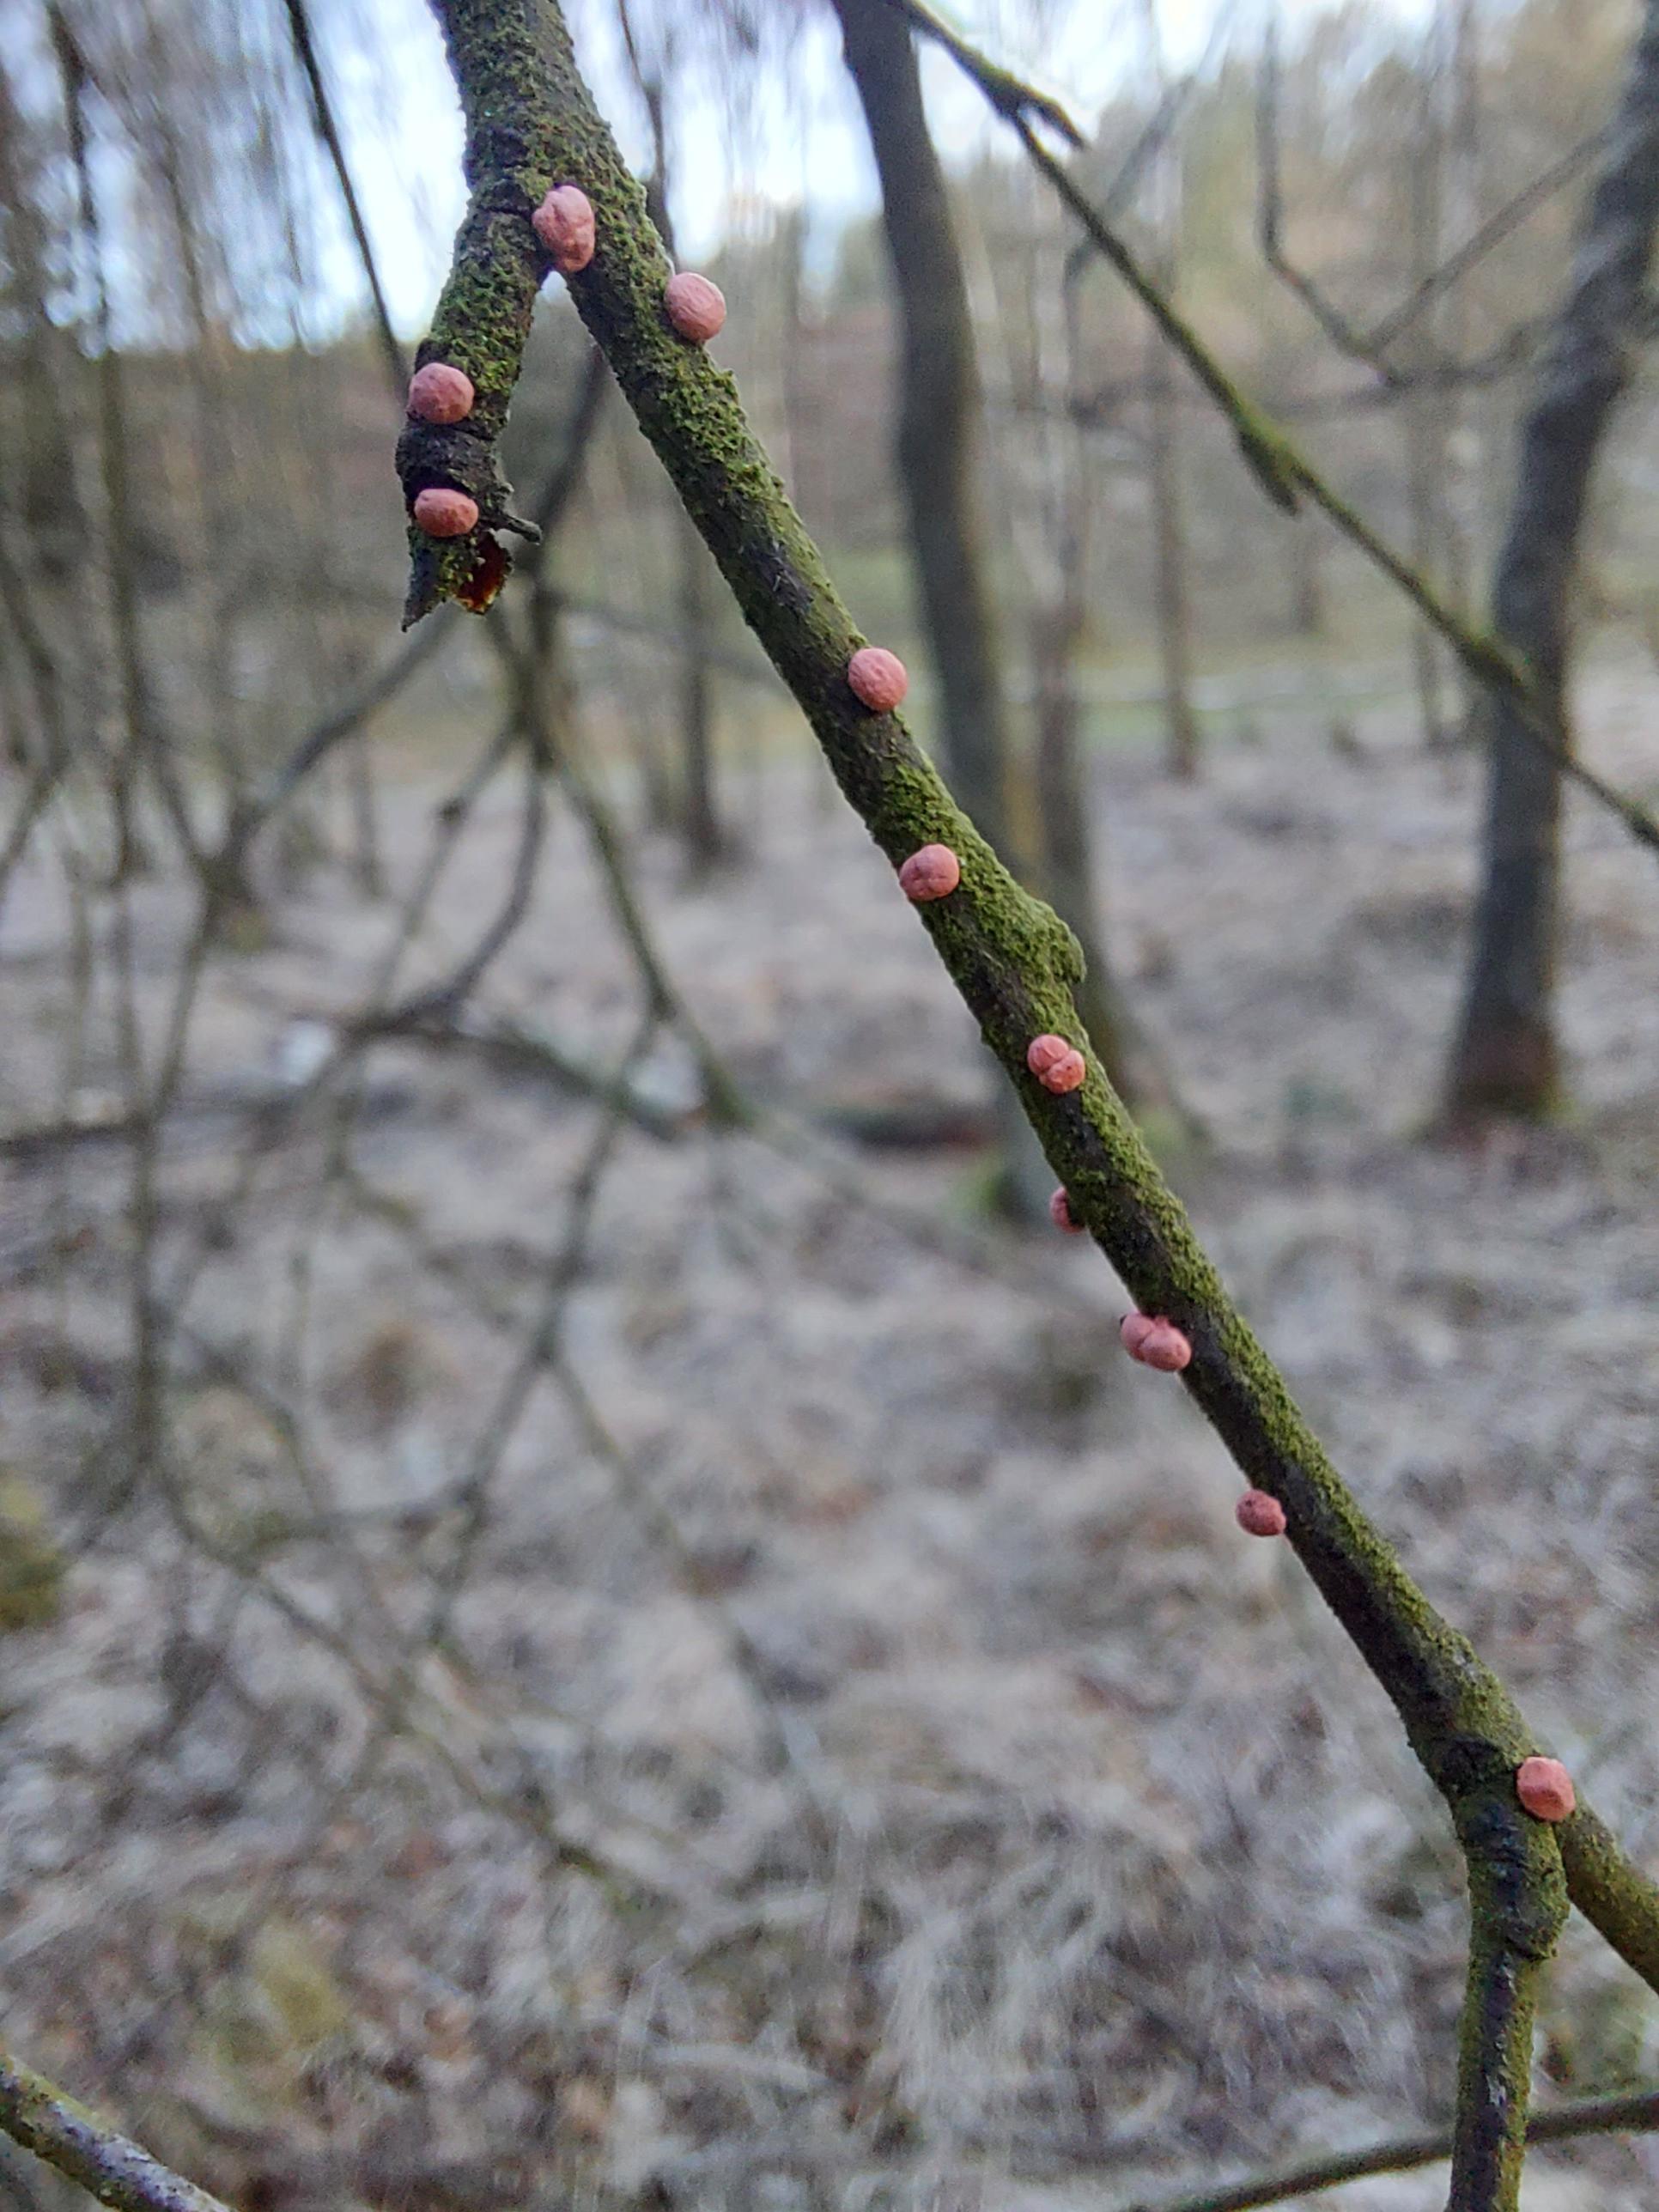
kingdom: Fungi
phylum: Ascomycota
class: Sordariomycetes
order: Hypocreales
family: Nectriaceae
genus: Nectria
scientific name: Nectria cinnabarina
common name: almindelig cinnobersvamp
